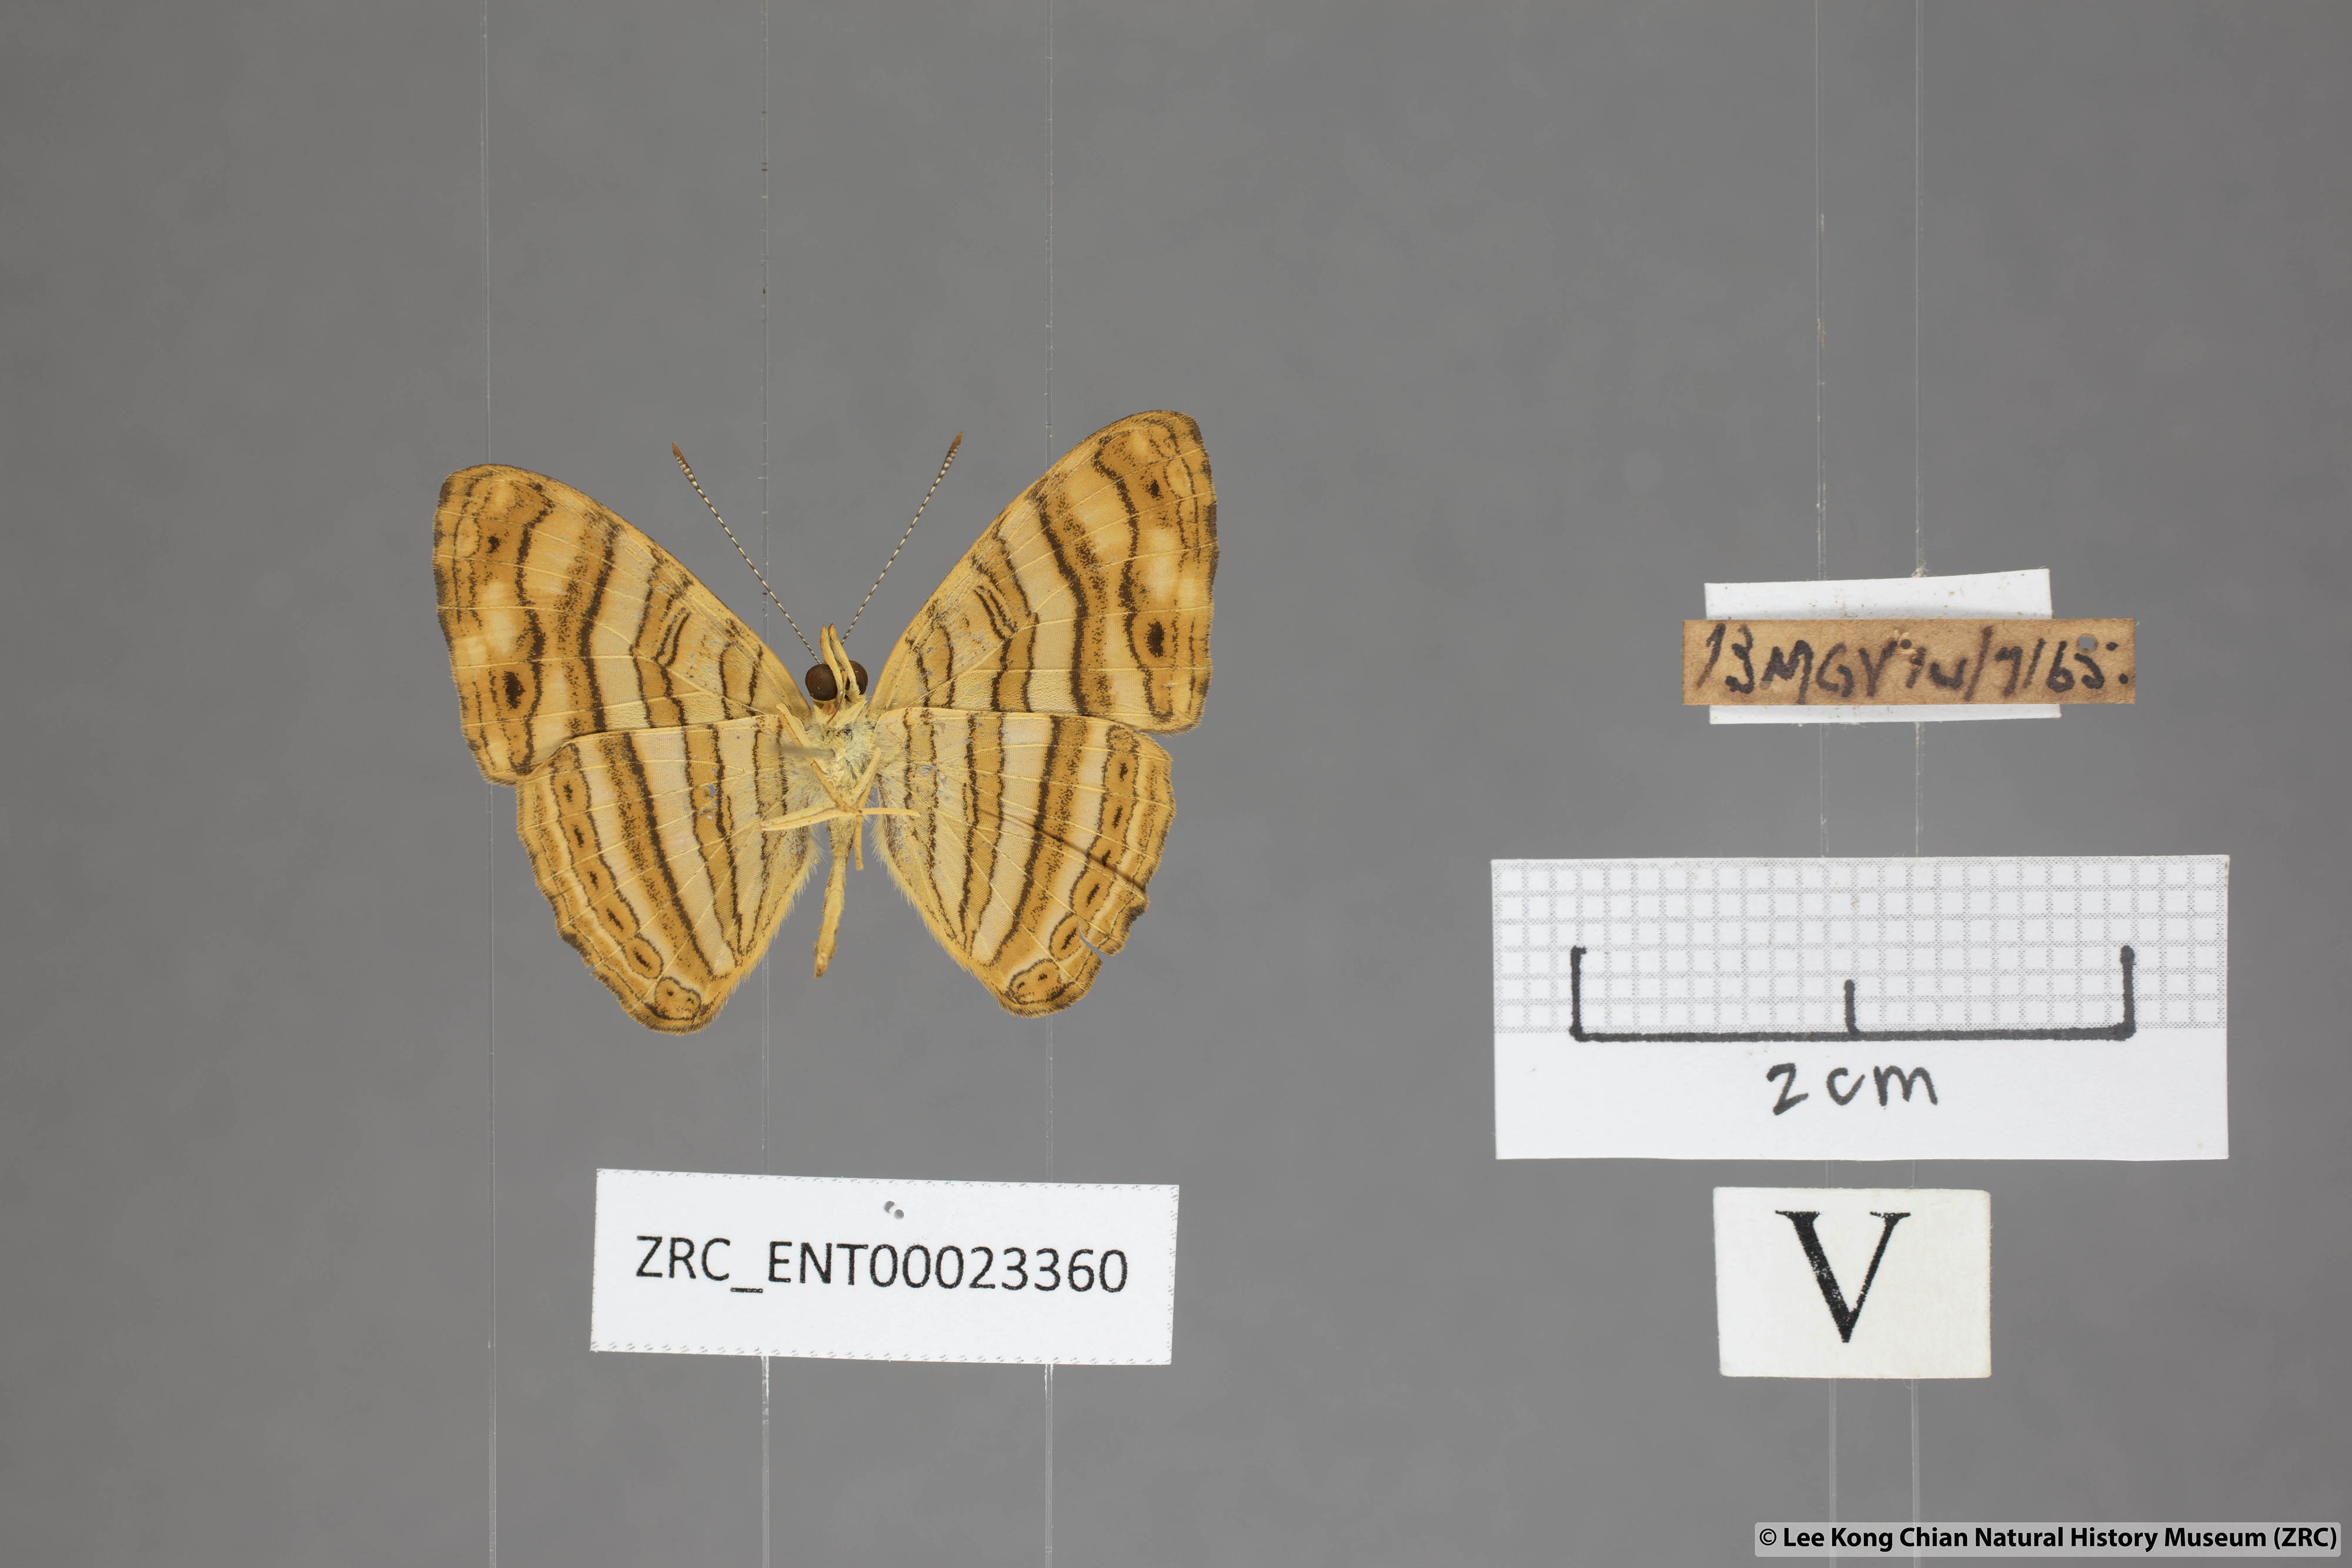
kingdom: Animalia
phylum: Arthropoda
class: Insecta
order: Lepidoptera
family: Nymphalidae
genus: Chersonesia
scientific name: Chersonesia peraka
